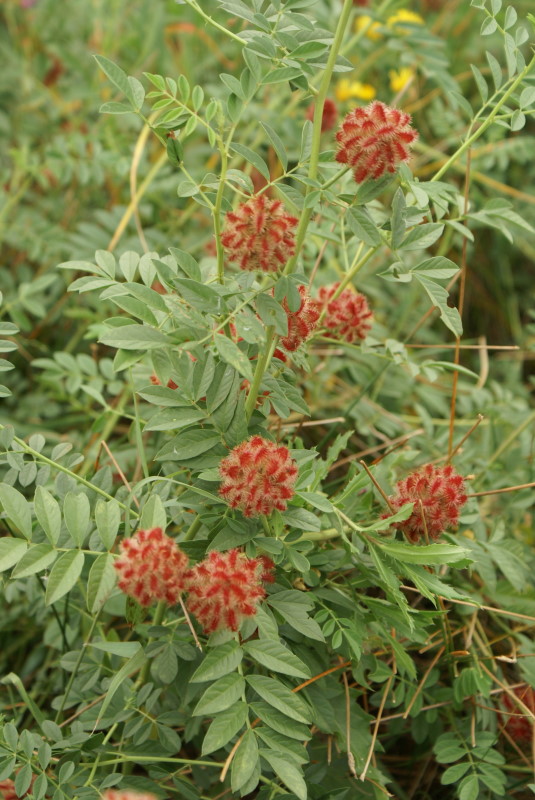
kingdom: Plantae
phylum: Tracheophyta
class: Magnoliopsida
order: Fabales
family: Fabaceae
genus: Glycyrrhiza
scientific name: Glycyrrhiza echinata
